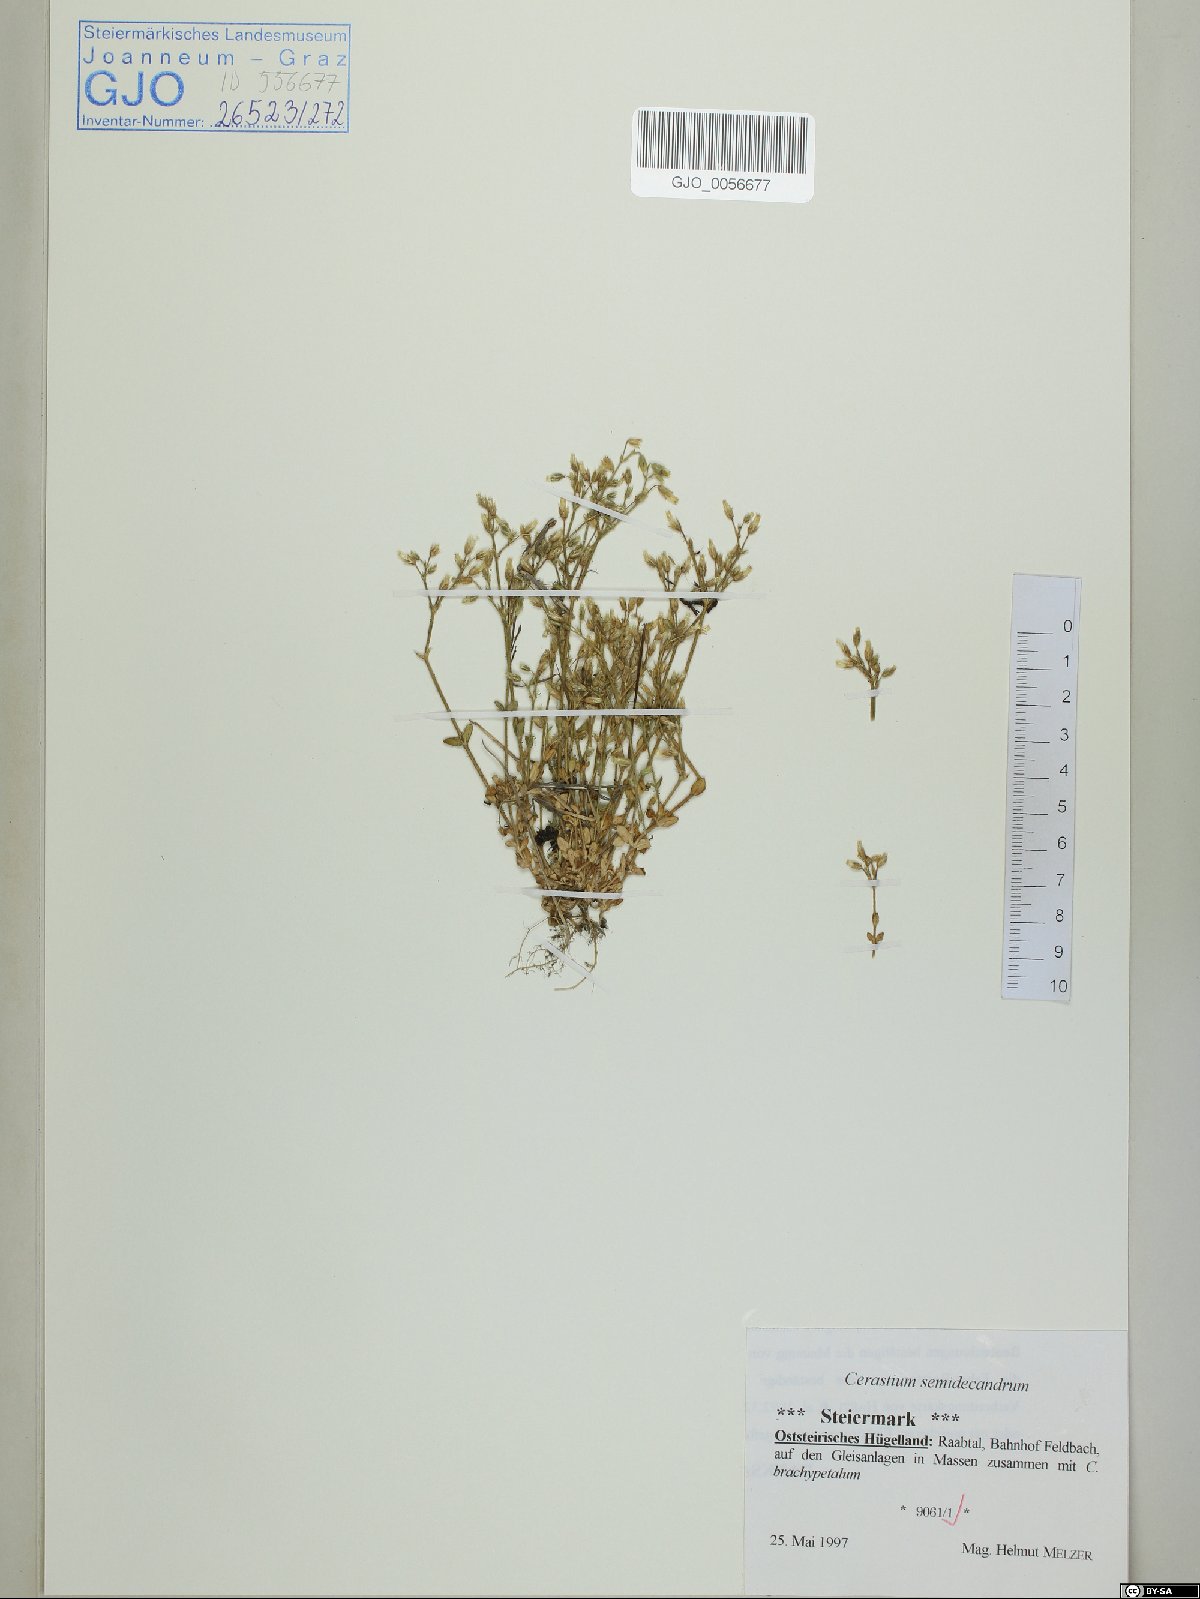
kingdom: Plantae
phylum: Tracheophyta
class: Magnoliopsida
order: Caryophyllales
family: Caryophyllaceae
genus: Cerastium
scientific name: Cerastium semidecandrum
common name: Little mouse-ear
